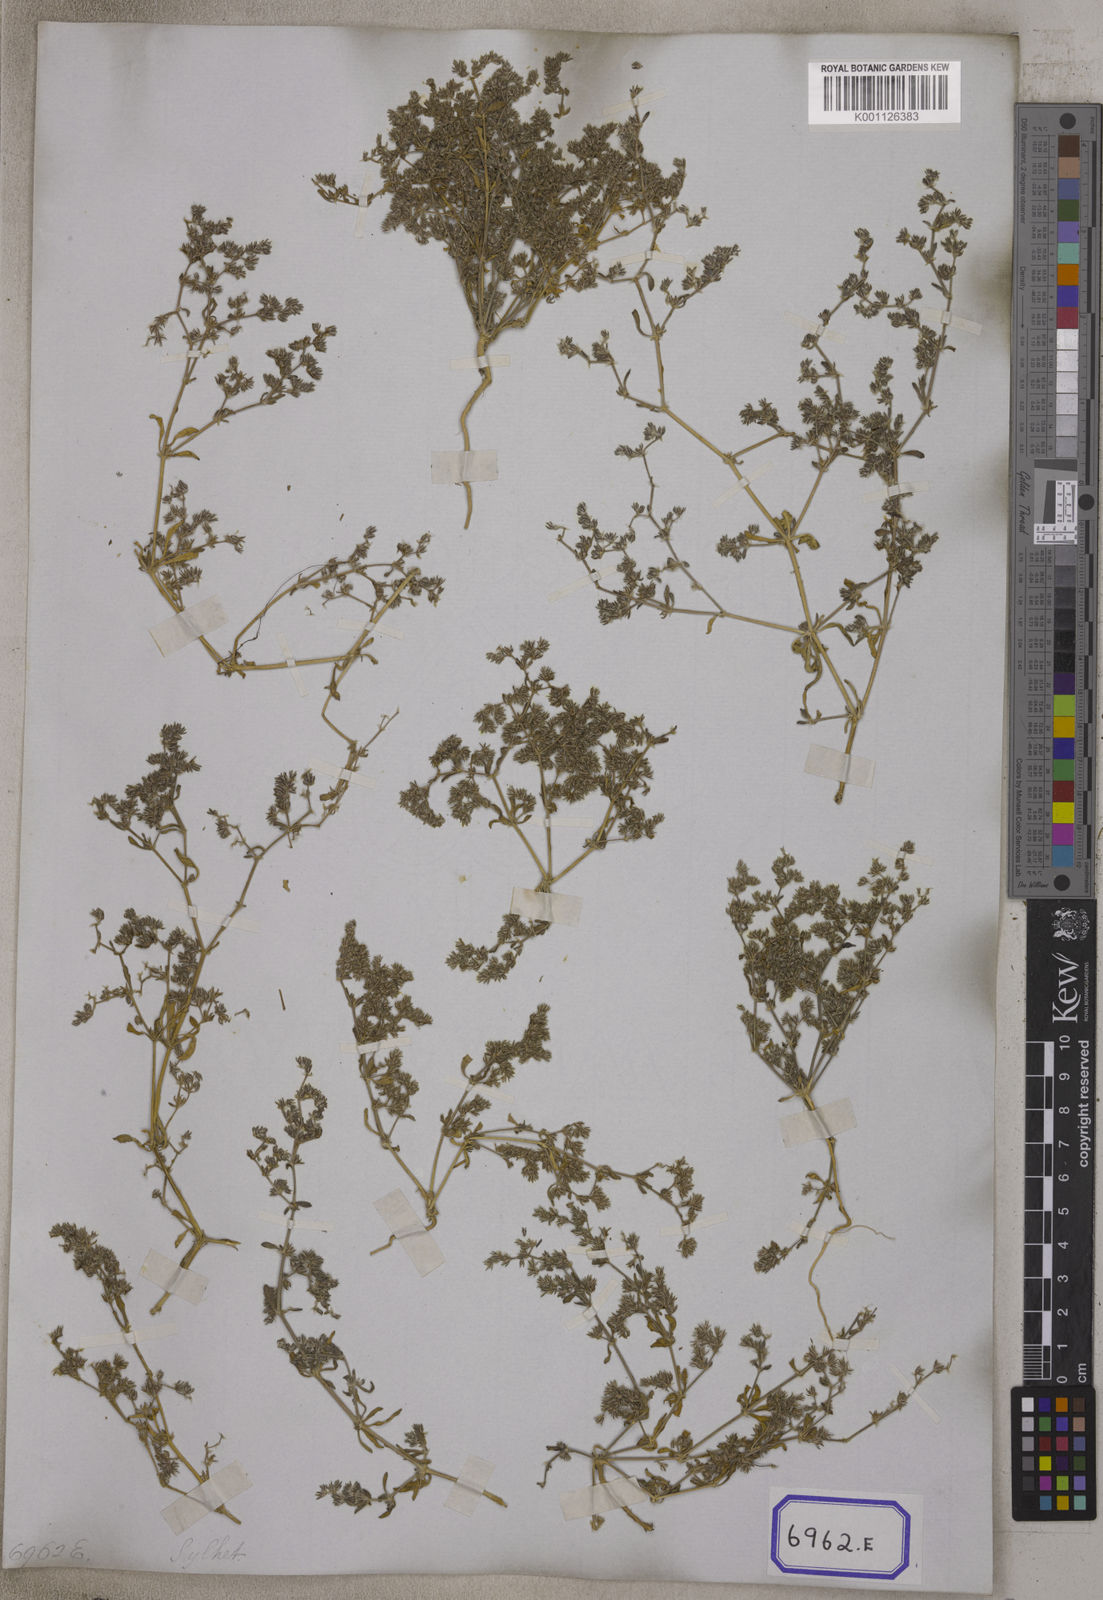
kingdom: Plantae
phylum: Tracheophyta
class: Magnoliopsida
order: Caryophyllales
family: Caryophyllaceae
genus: Hapalosia
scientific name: Hapalosia
